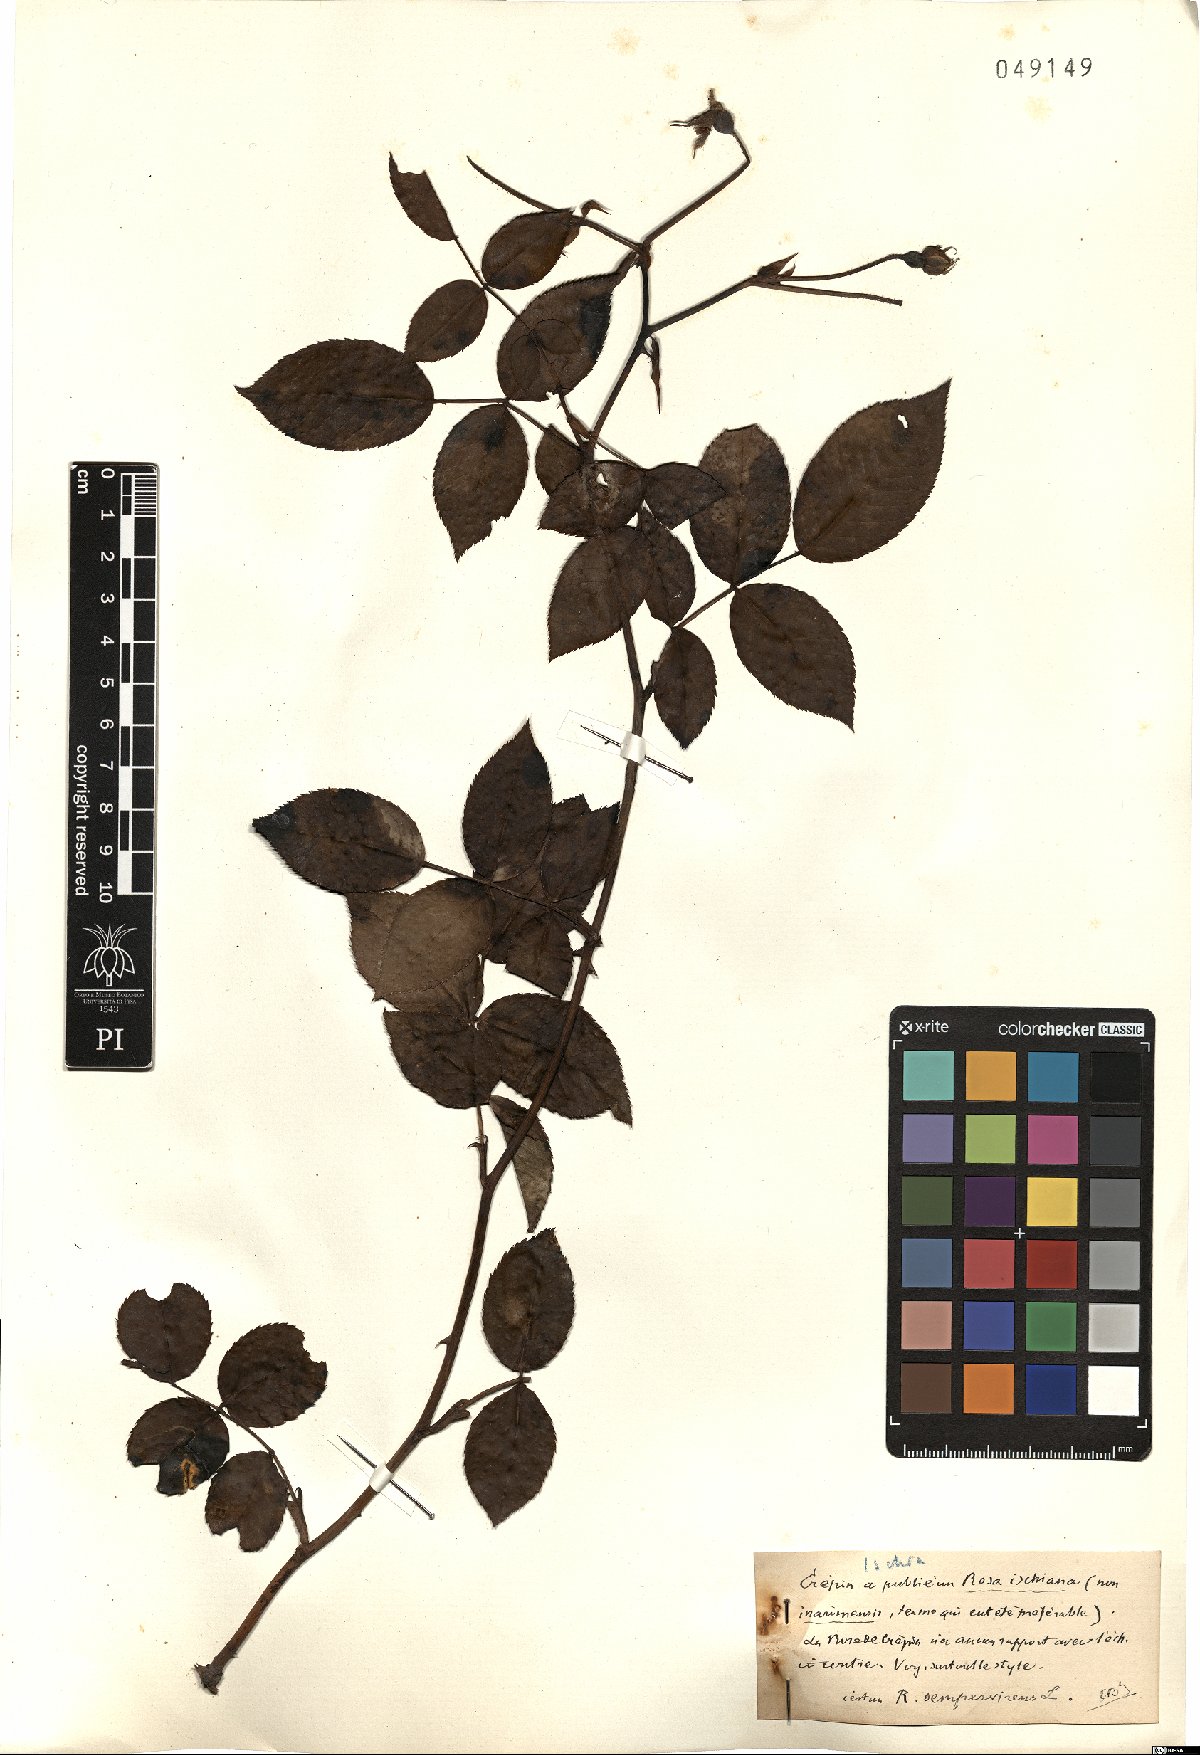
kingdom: Plantae
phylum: Tracheophyta
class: Magnoliopsida
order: Rosales
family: Rosaceae
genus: Rosa
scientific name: Rosa sempervirens
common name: Evergreen rose
